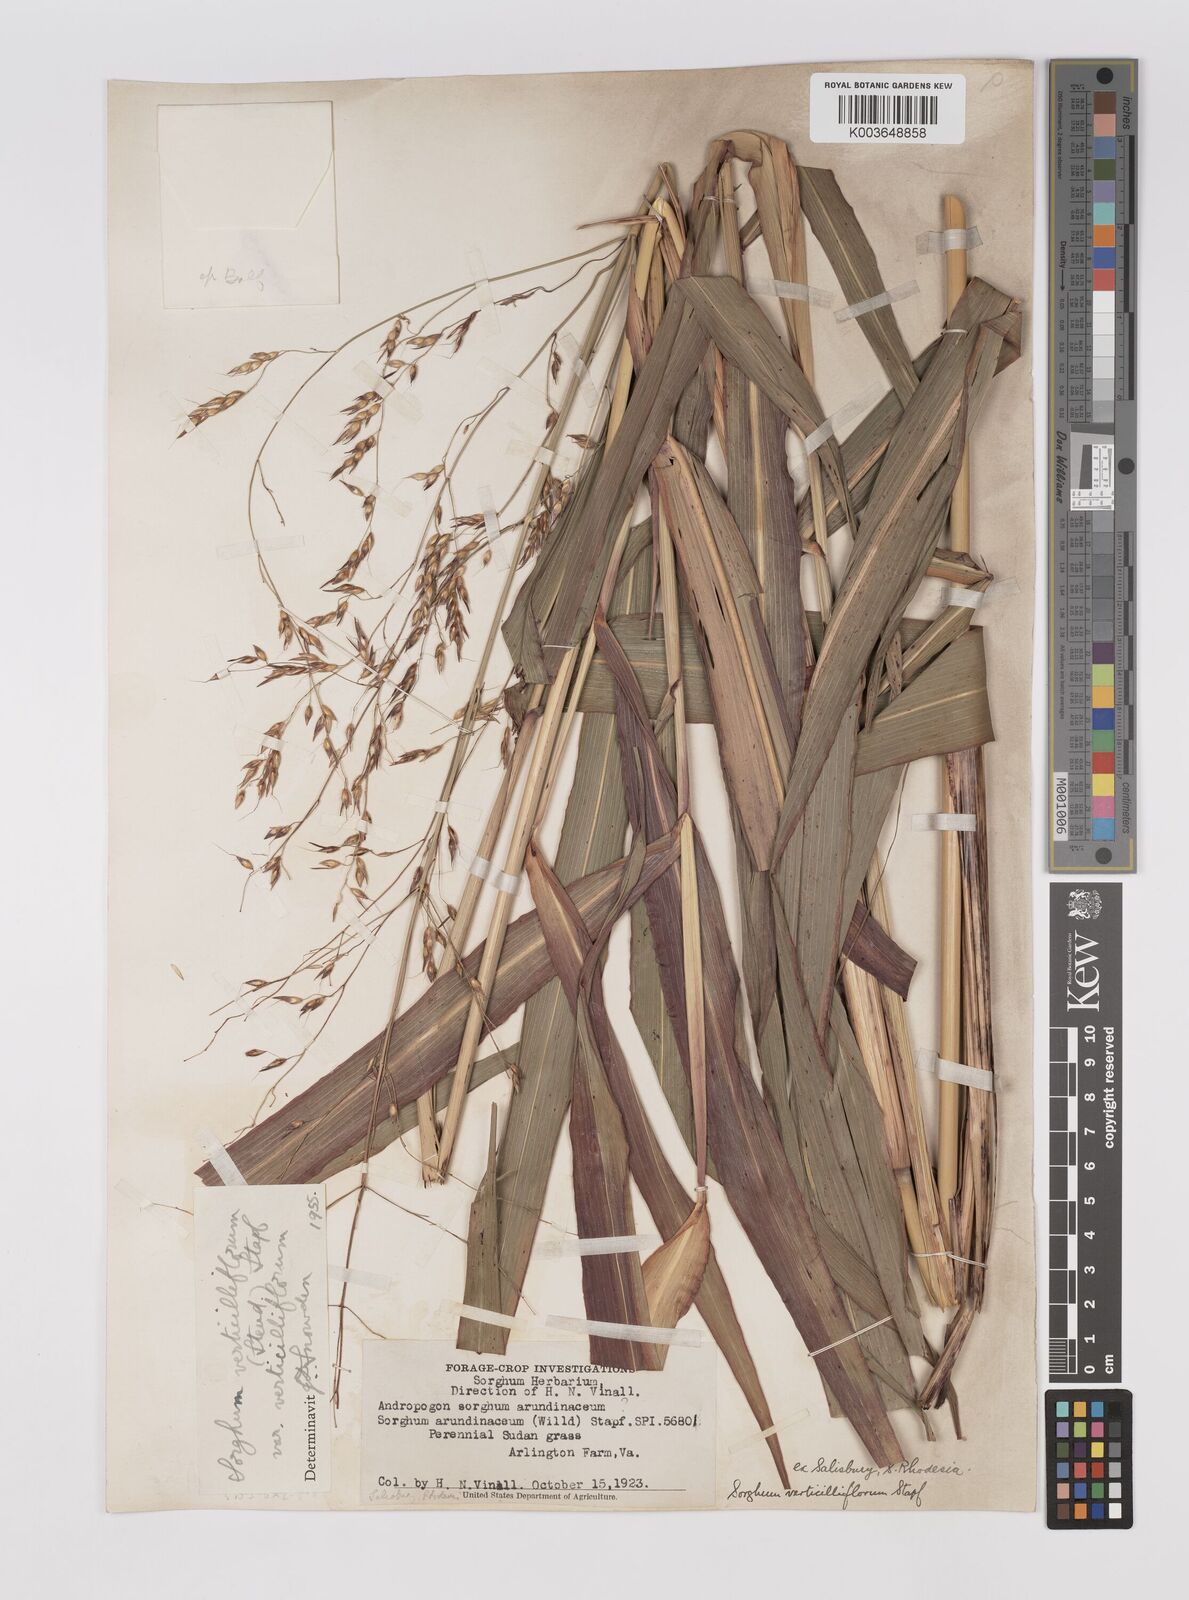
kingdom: Plantae
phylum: Tracheophyta
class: Liliopsida
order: Poales
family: Poaceae
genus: Sorghum
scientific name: Sorghum arundinaceum
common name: Sorghum
